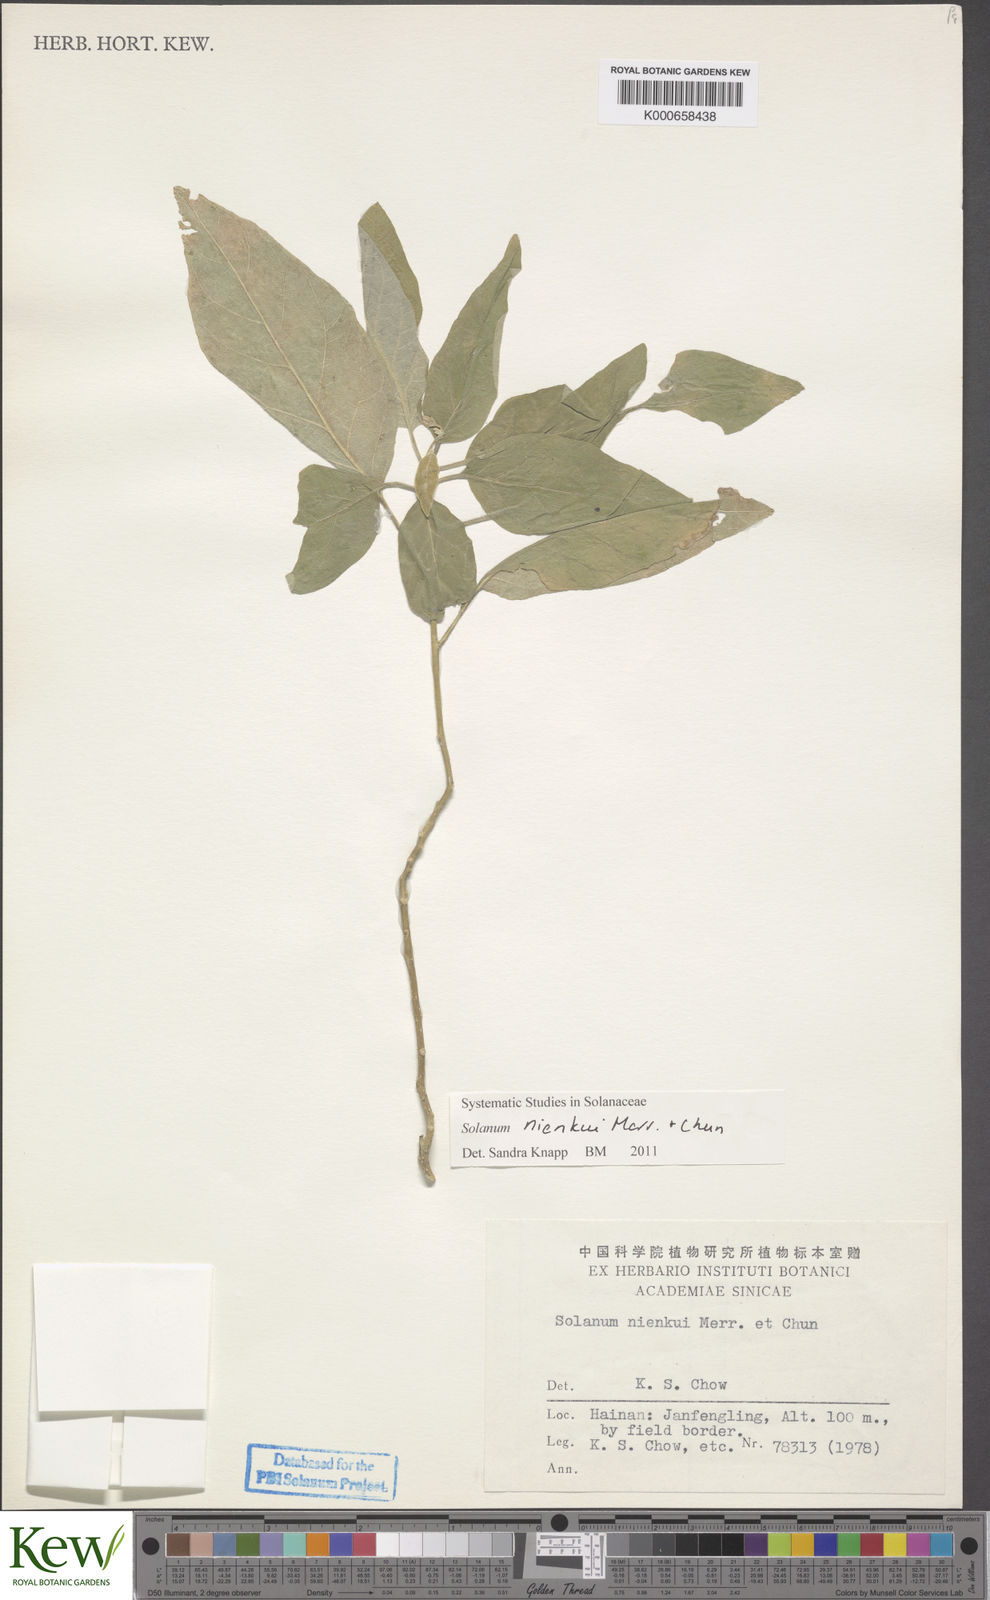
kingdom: Plantae
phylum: Tracheophyta
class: Magnoliopsida
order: Solanales
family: Solanaceae
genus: Solanum
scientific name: Solanum nienkui
